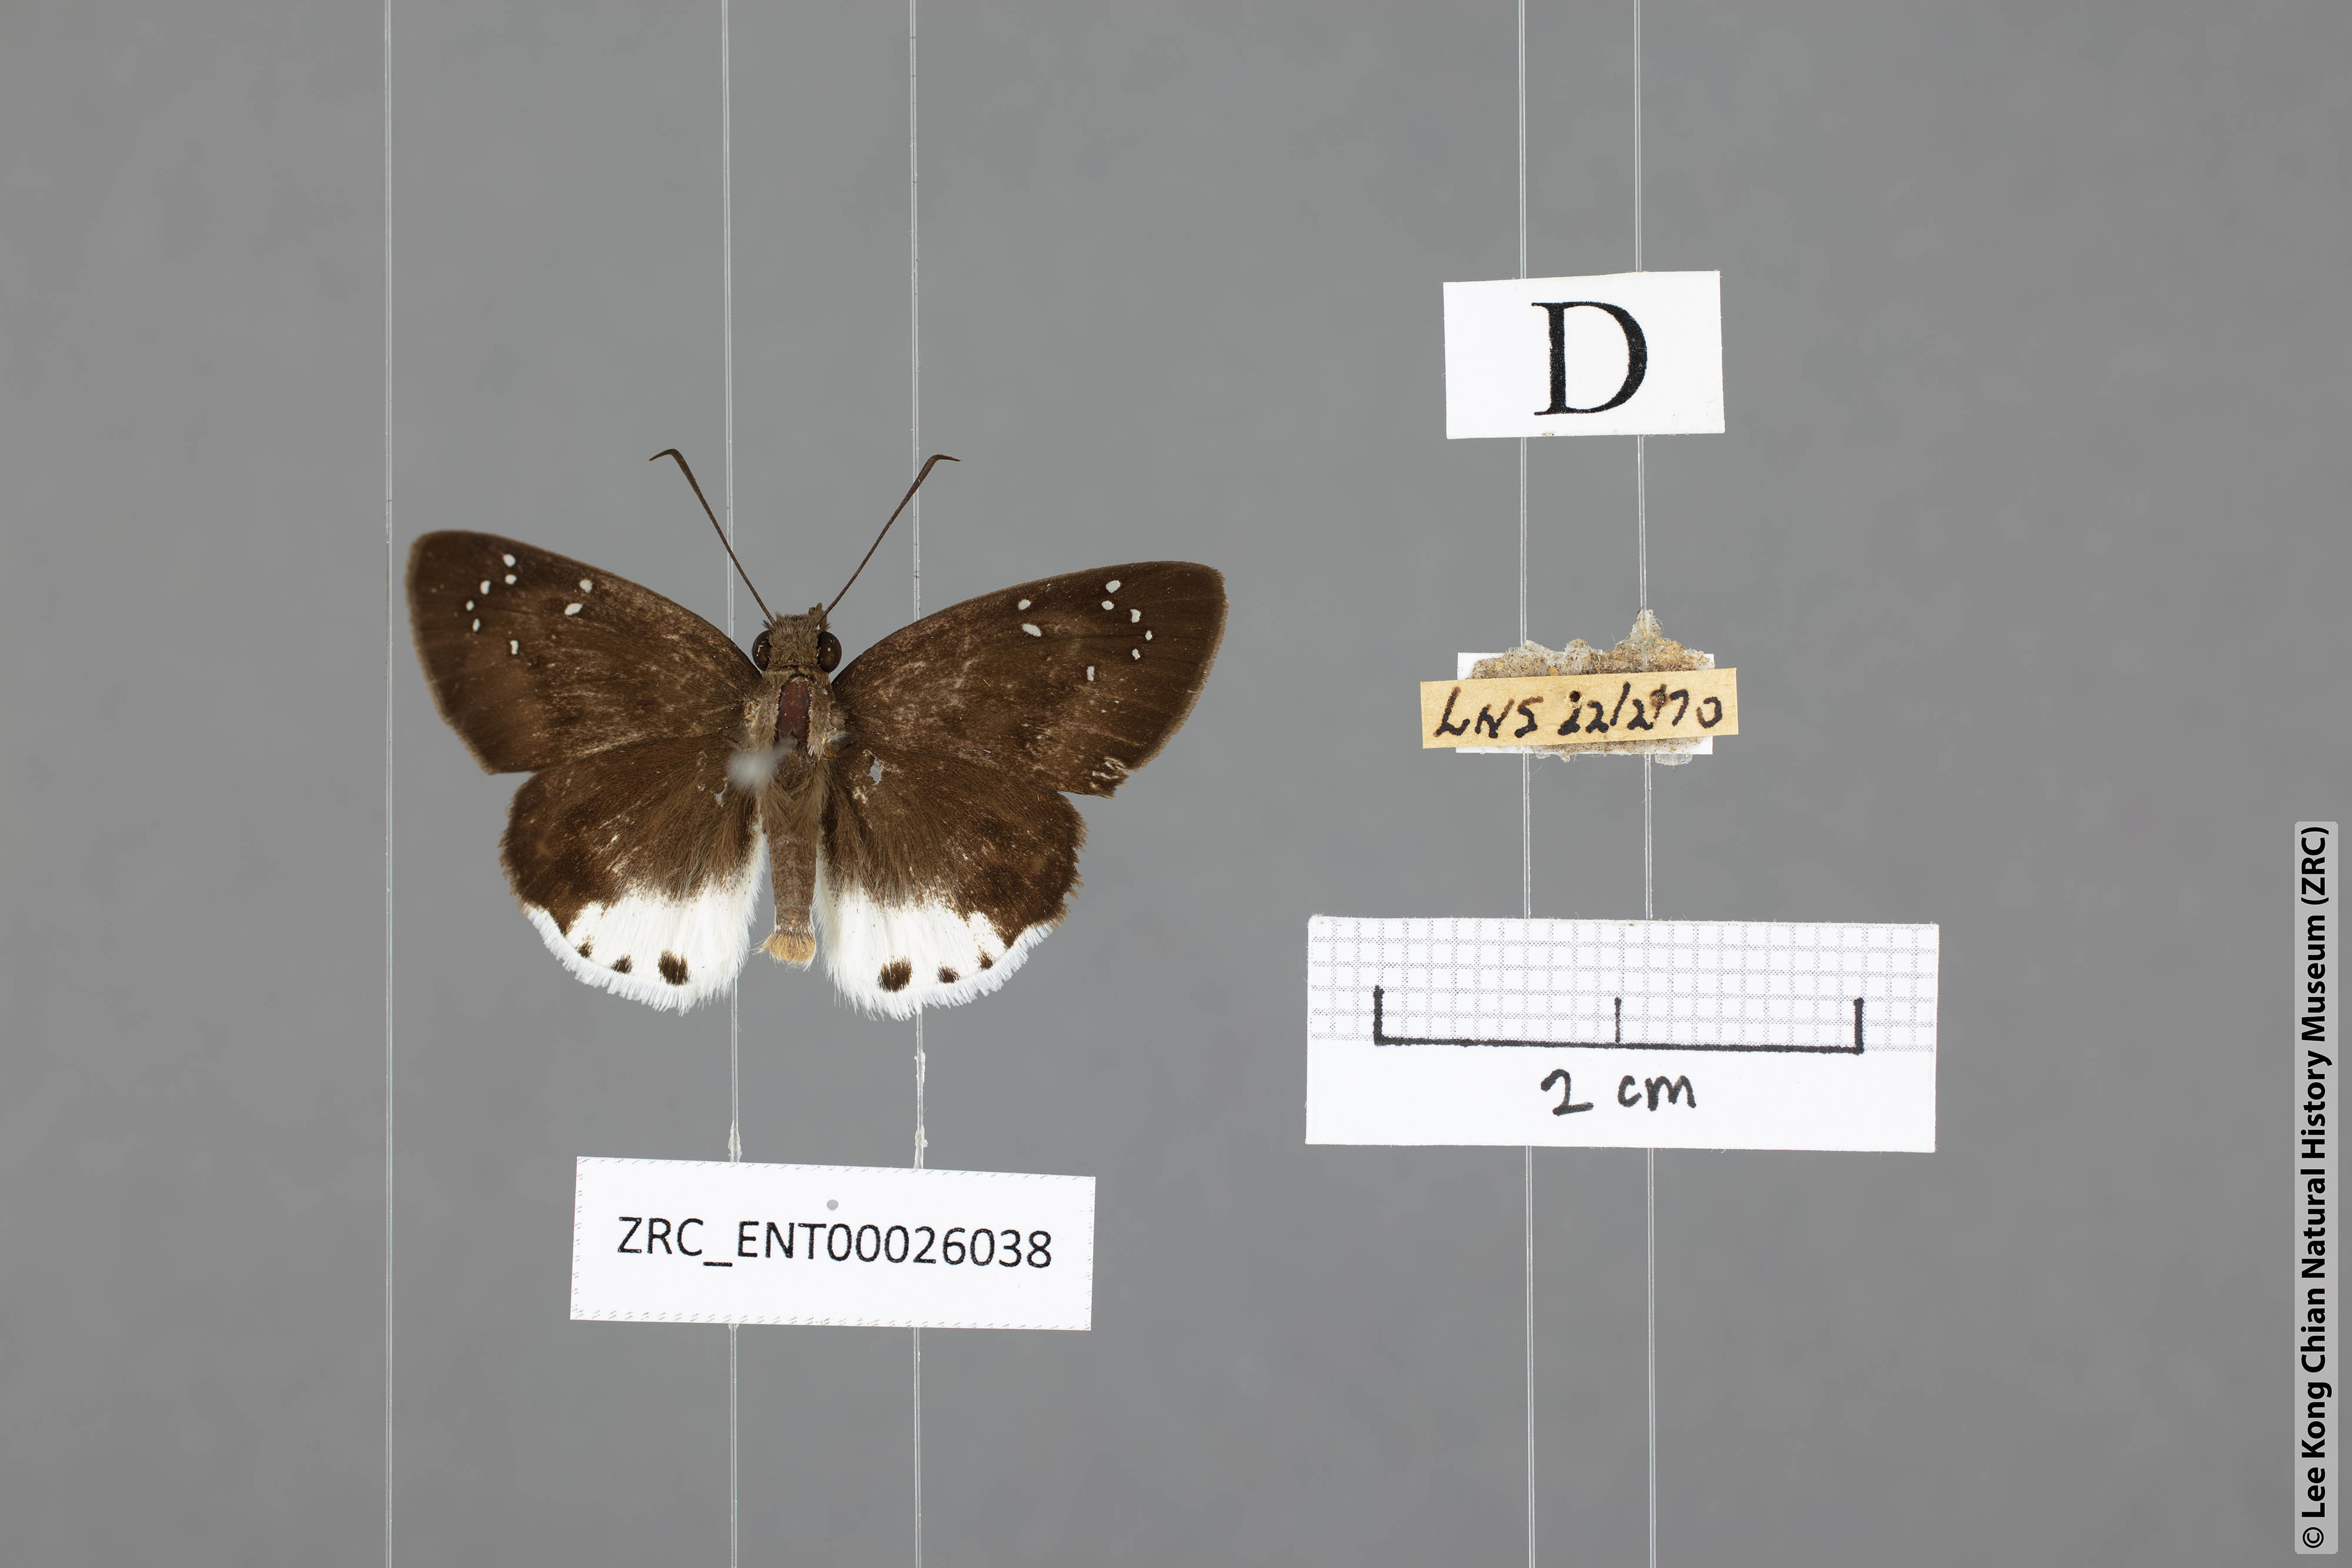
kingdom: Animalia
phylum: Arthropoda
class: Insecta
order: Lepidoptera
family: Hesperiidae
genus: Tagiades
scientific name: Tagiades toba
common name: Different-spotted snow flat
